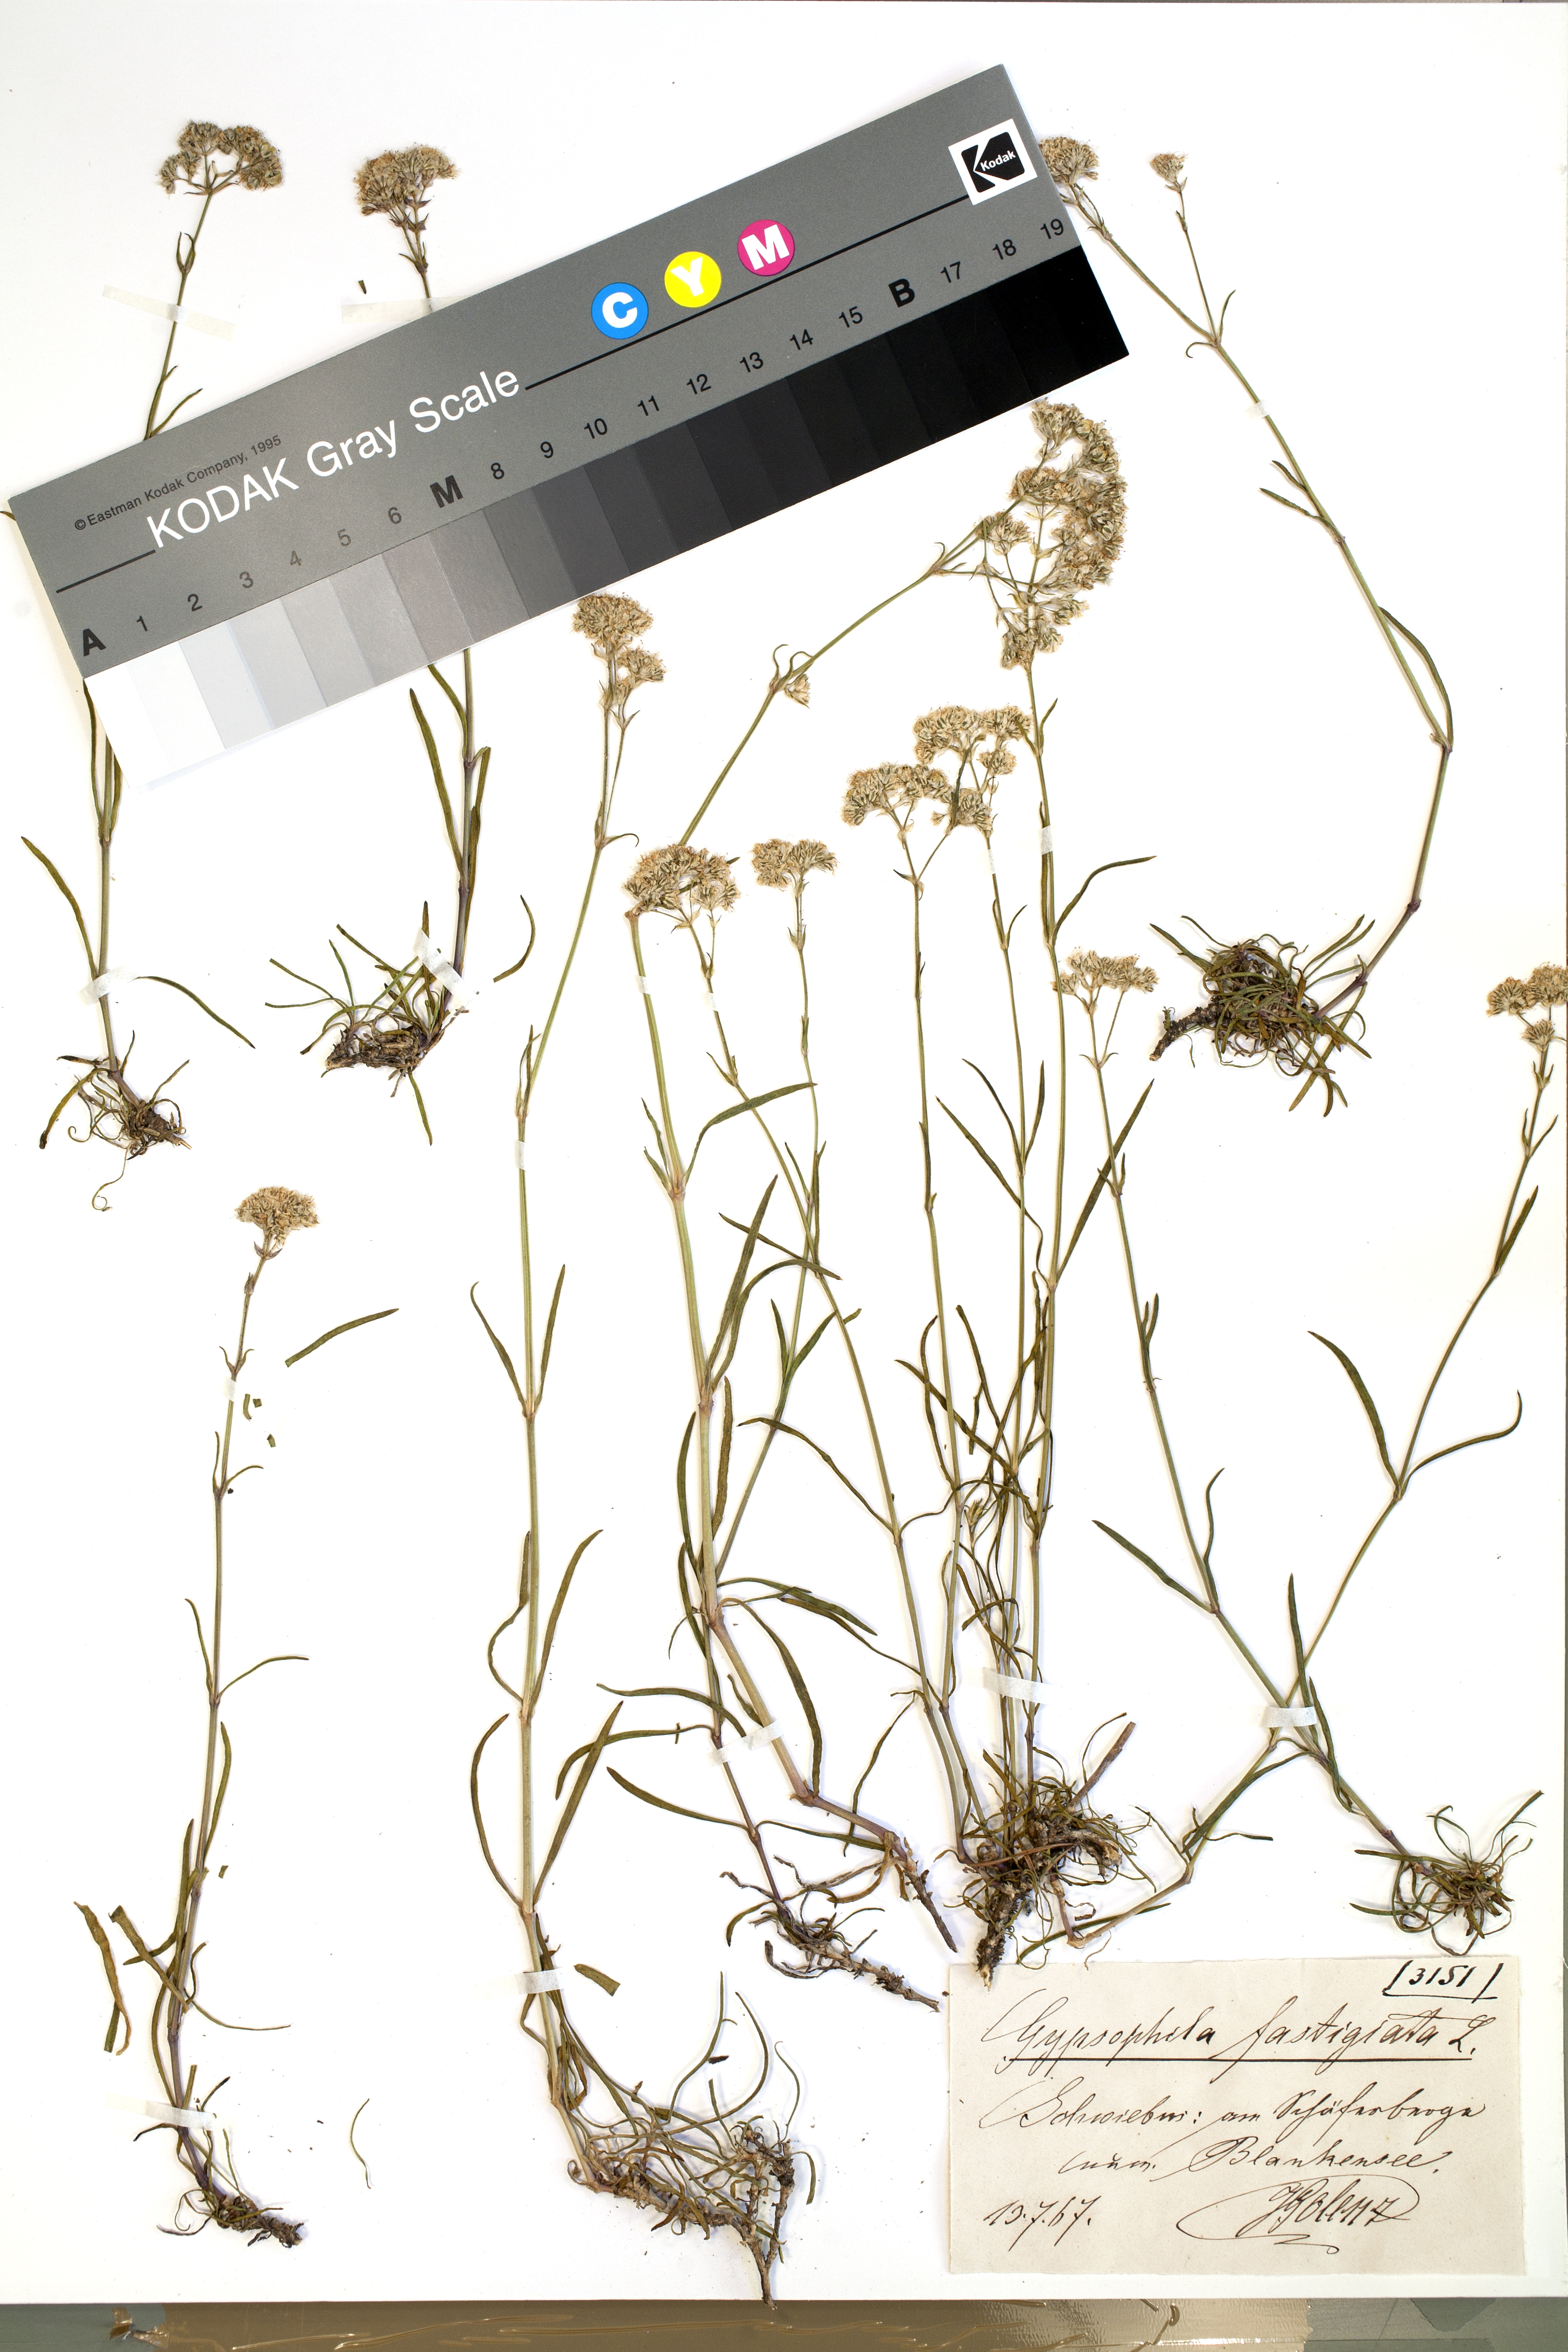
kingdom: Plantae
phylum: Tracheophyta
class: Magnoliopsida
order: Caryophyllales
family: Caryophyllaceae
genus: Gypsophila
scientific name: Gypsophila fastigiata
